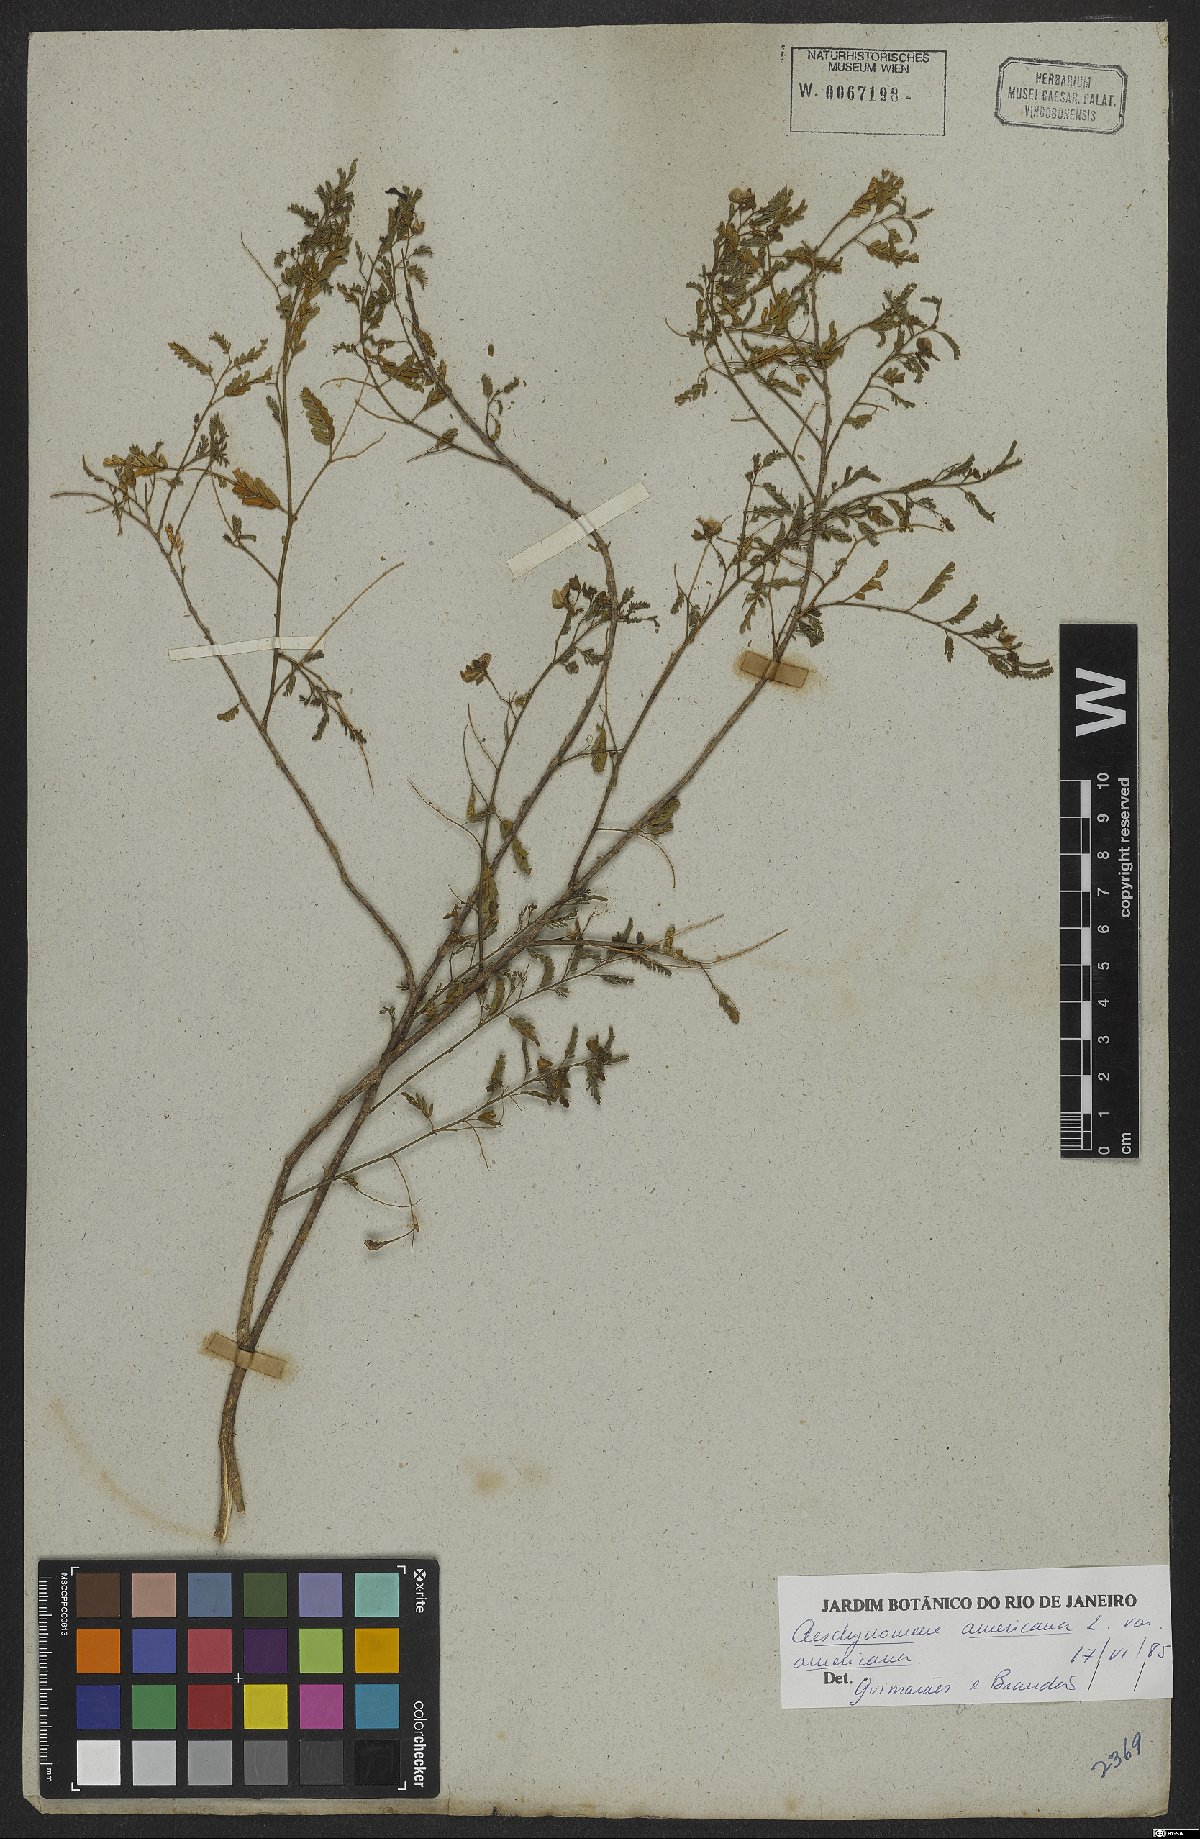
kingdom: Plantae
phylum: Tracheophyta
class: Magnoliopsida
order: Fabales
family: Fabaceae
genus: Aeschynomene
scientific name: Aeschynomene americana
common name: Joint-vetch
